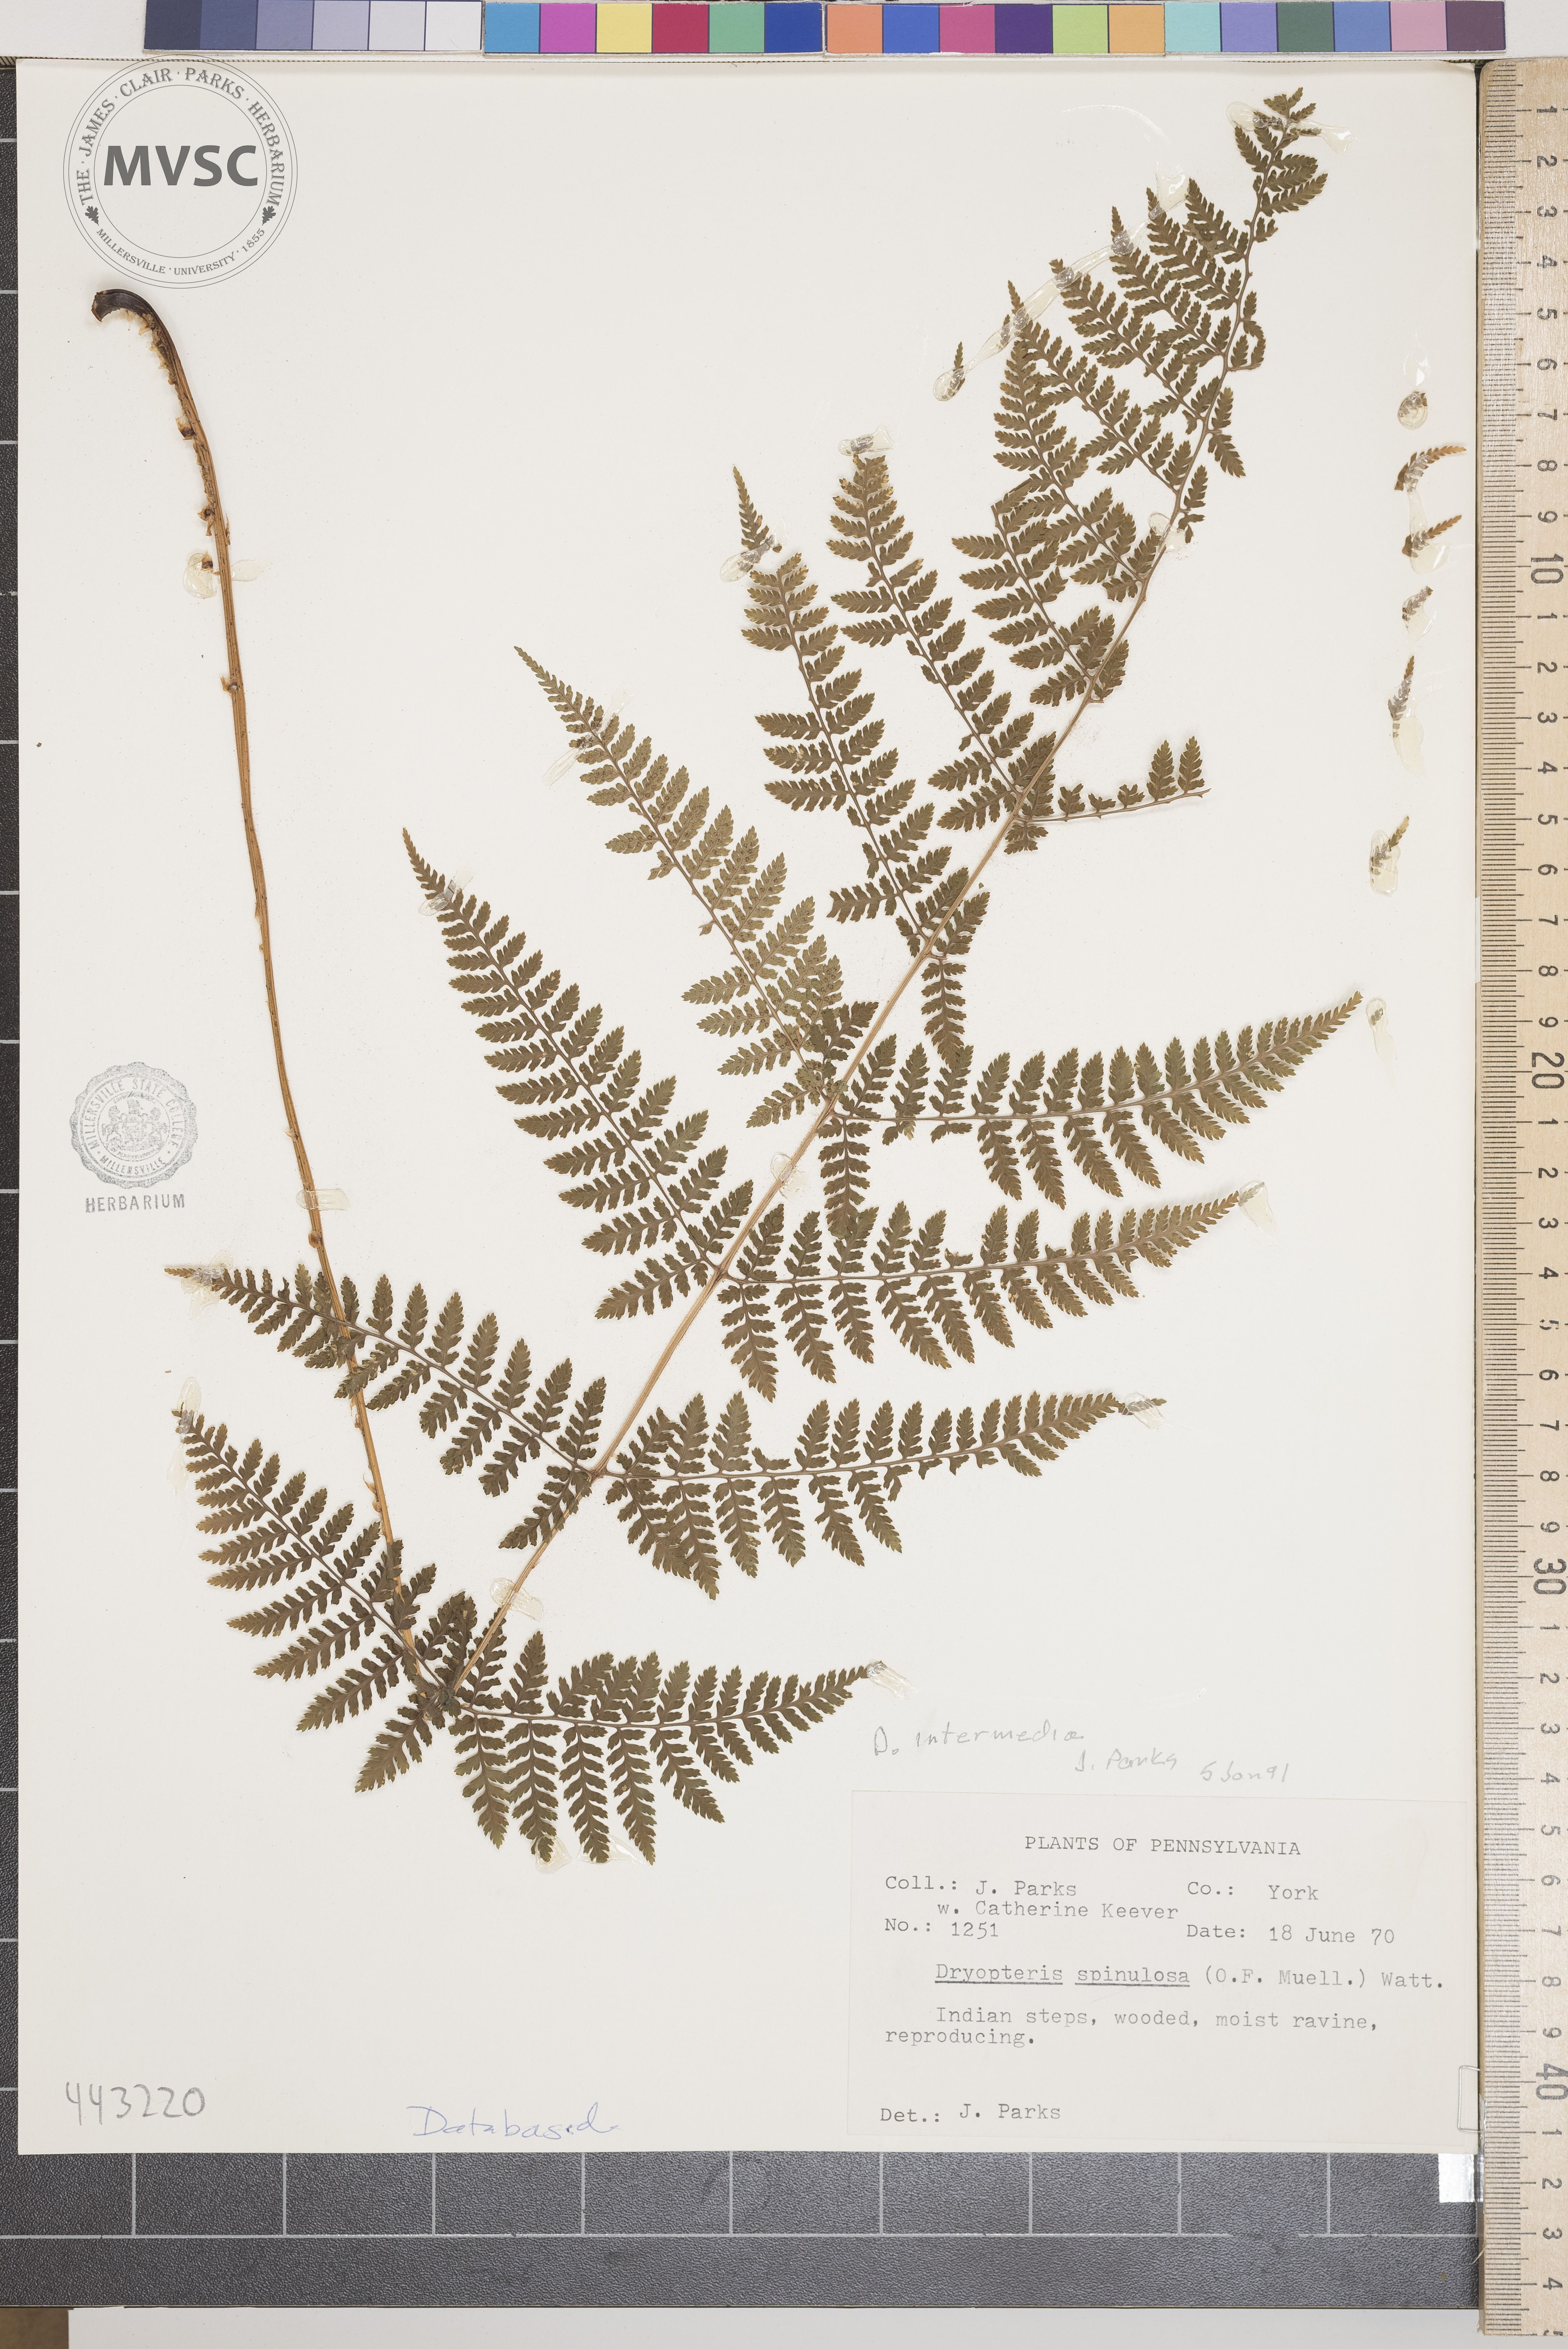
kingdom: Plantae
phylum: Tracheophyta
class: Polypodiopsida
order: Polypodiales
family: Dryopteridaceae
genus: Dryopteris
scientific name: Dryopteris intermedia
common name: Evergreen wood fern
